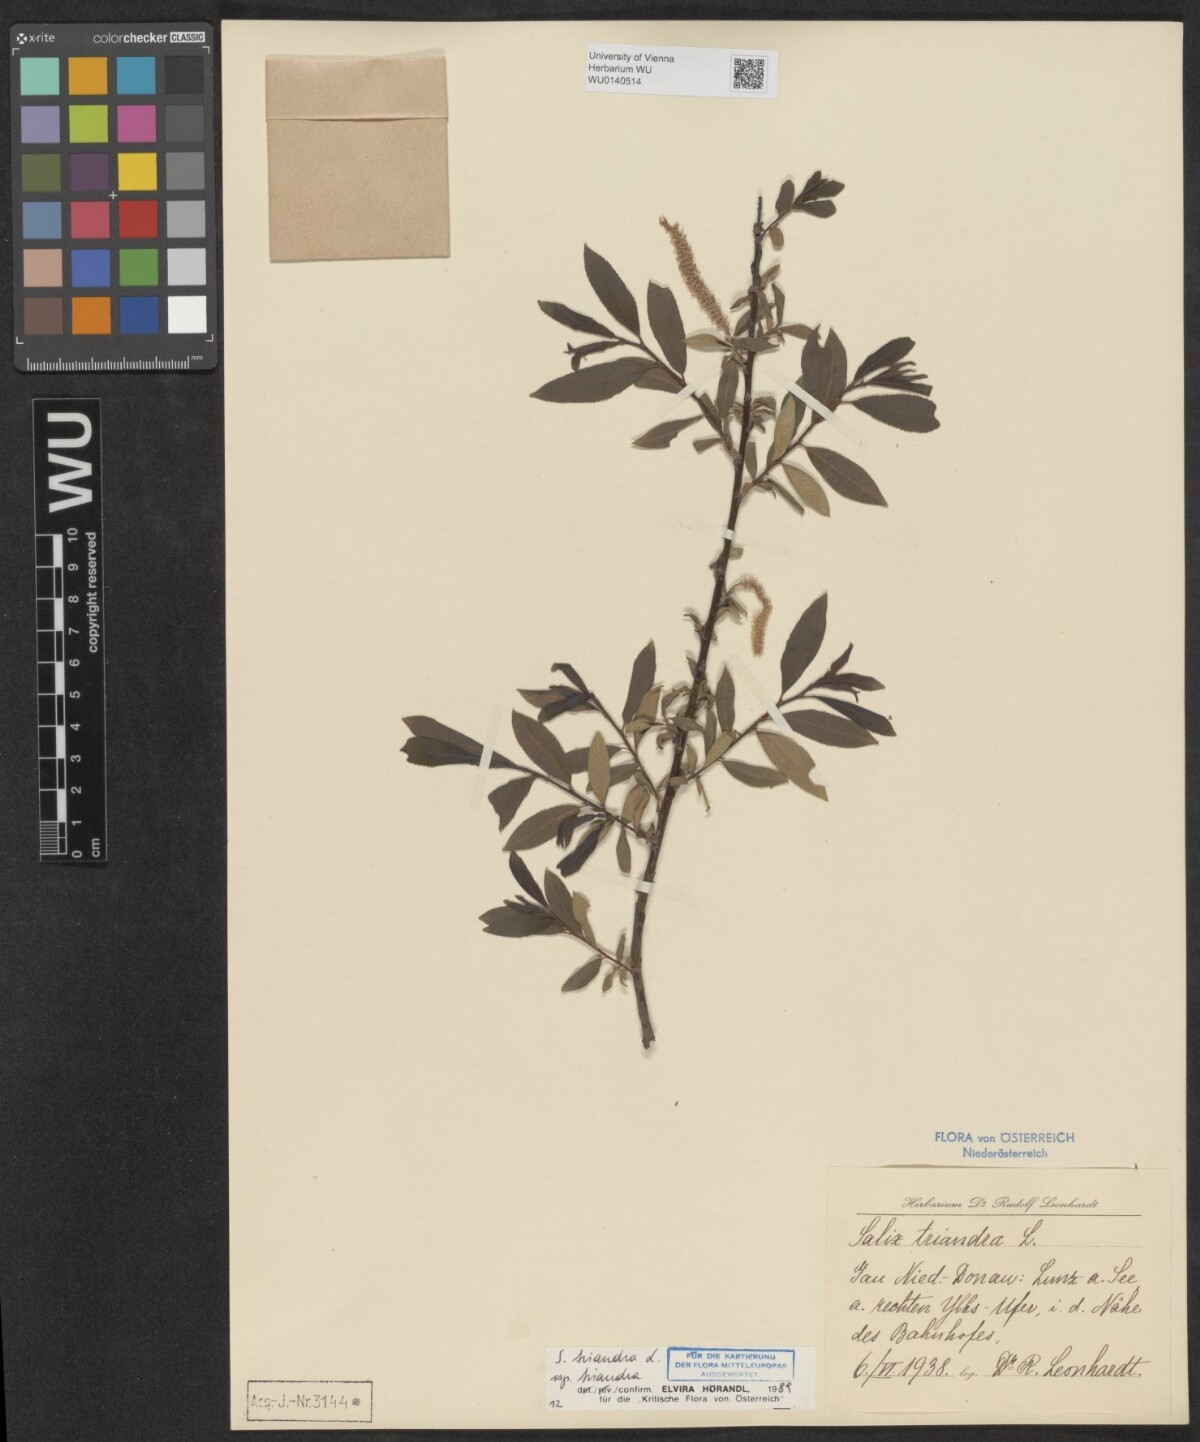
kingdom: Plantae
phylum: Tracheophyta
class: Magnoliopsida
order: Malpighiales
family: Salicaceae
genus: Salix
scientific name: Salix triandra
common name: Almond willow
